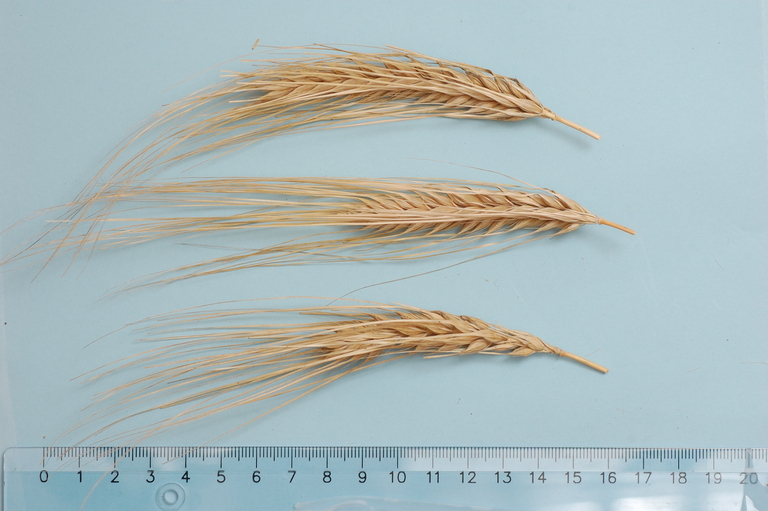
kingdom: Plantae
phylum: Tracheophyta
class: Liliopsida
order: Poales
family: Poaceae
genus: Hordeum
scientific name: Hordeum vulgare
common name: Common barley
